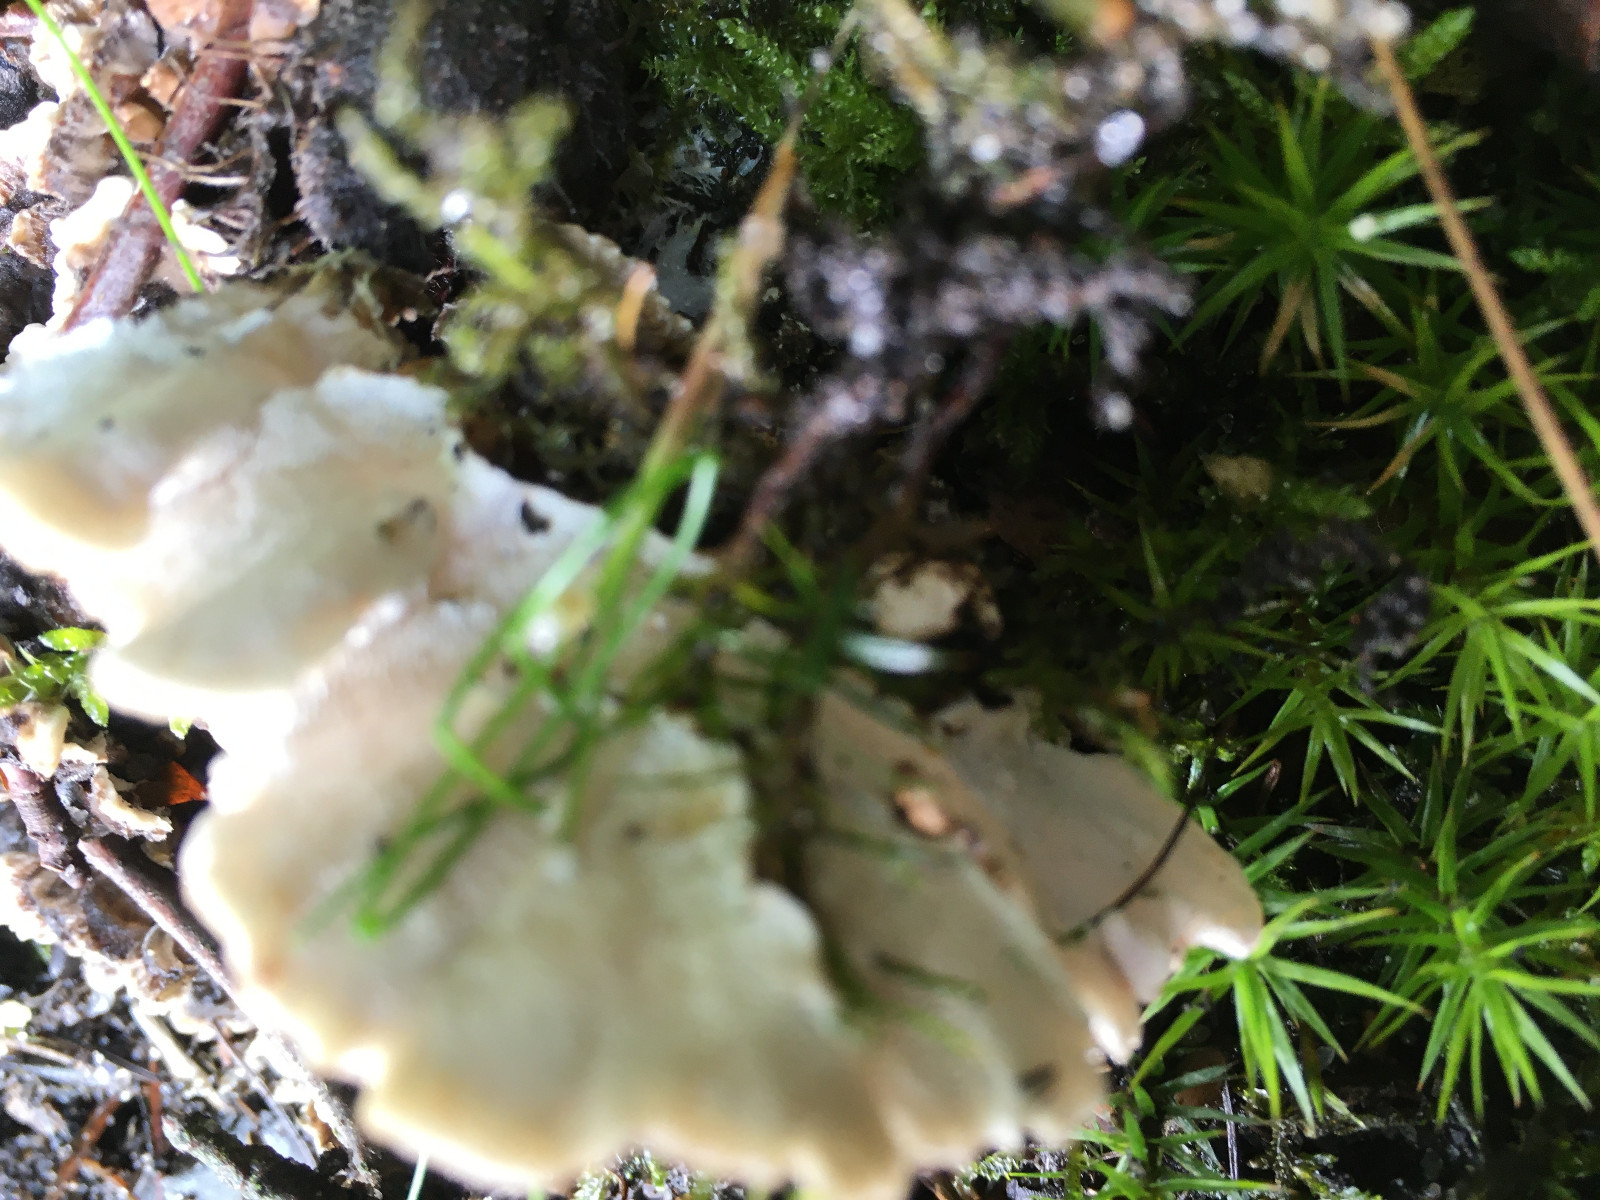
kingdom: Fungi
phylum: Basidiomycota
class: Agaricomycetes
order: Polyporales
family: Polyporaceae
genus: Trametes
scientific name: Trametes versicolor
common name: broget læderporesvamp
